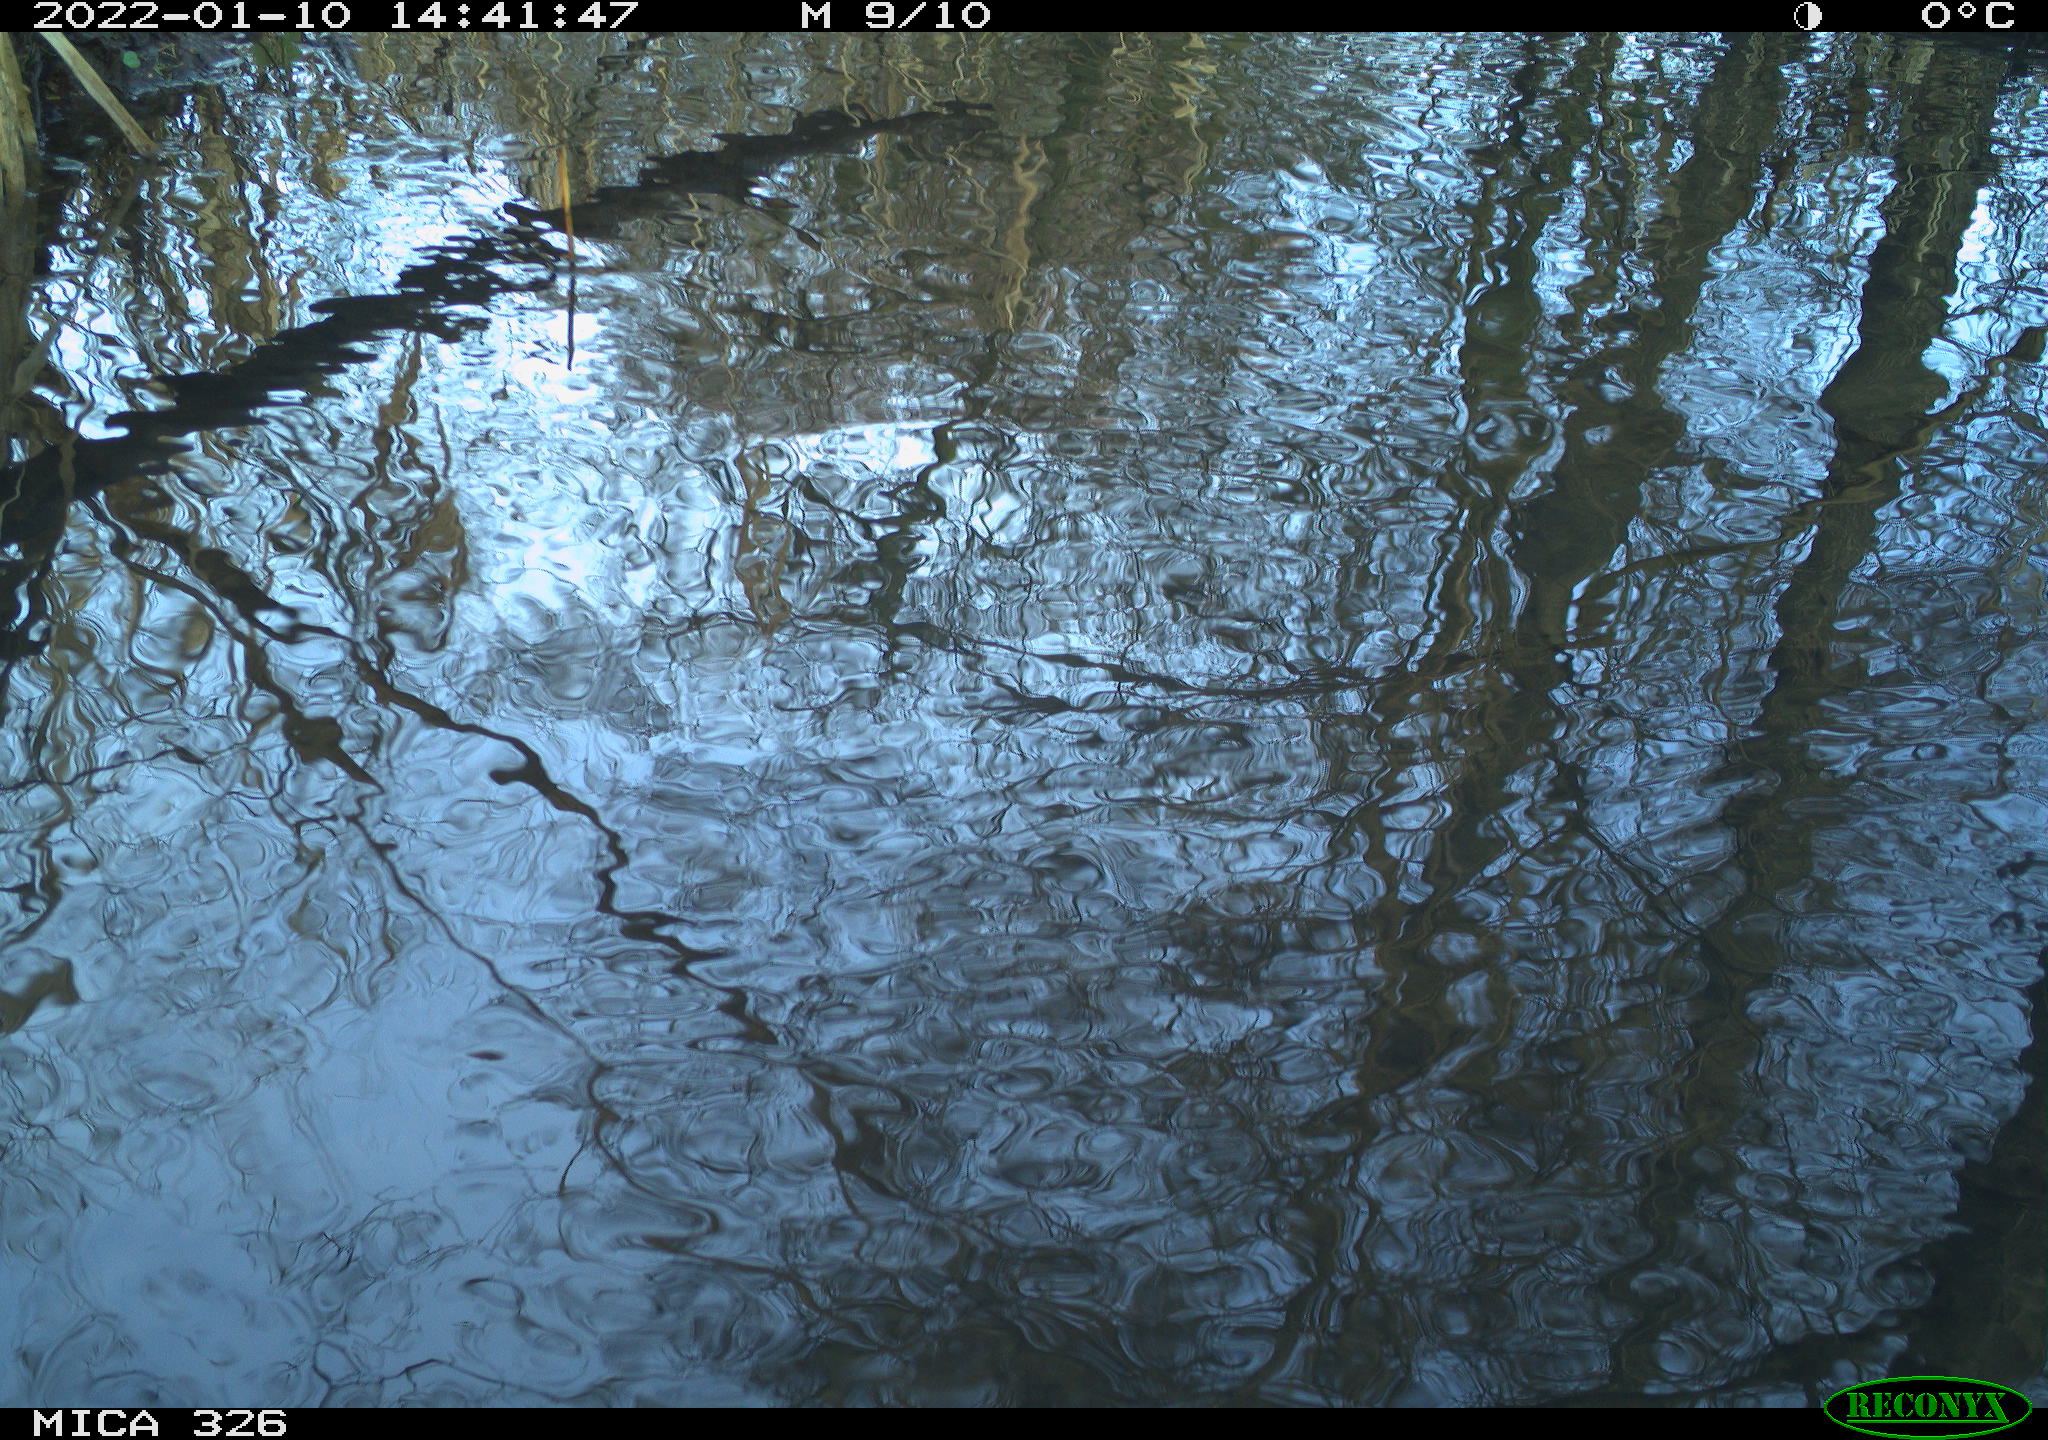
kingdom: Animalia
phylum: Chordata
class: Aves
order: Gruiformes
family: Rallidae
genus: Gallinula
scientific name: Gallinula chloropus
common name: Common moorhen
